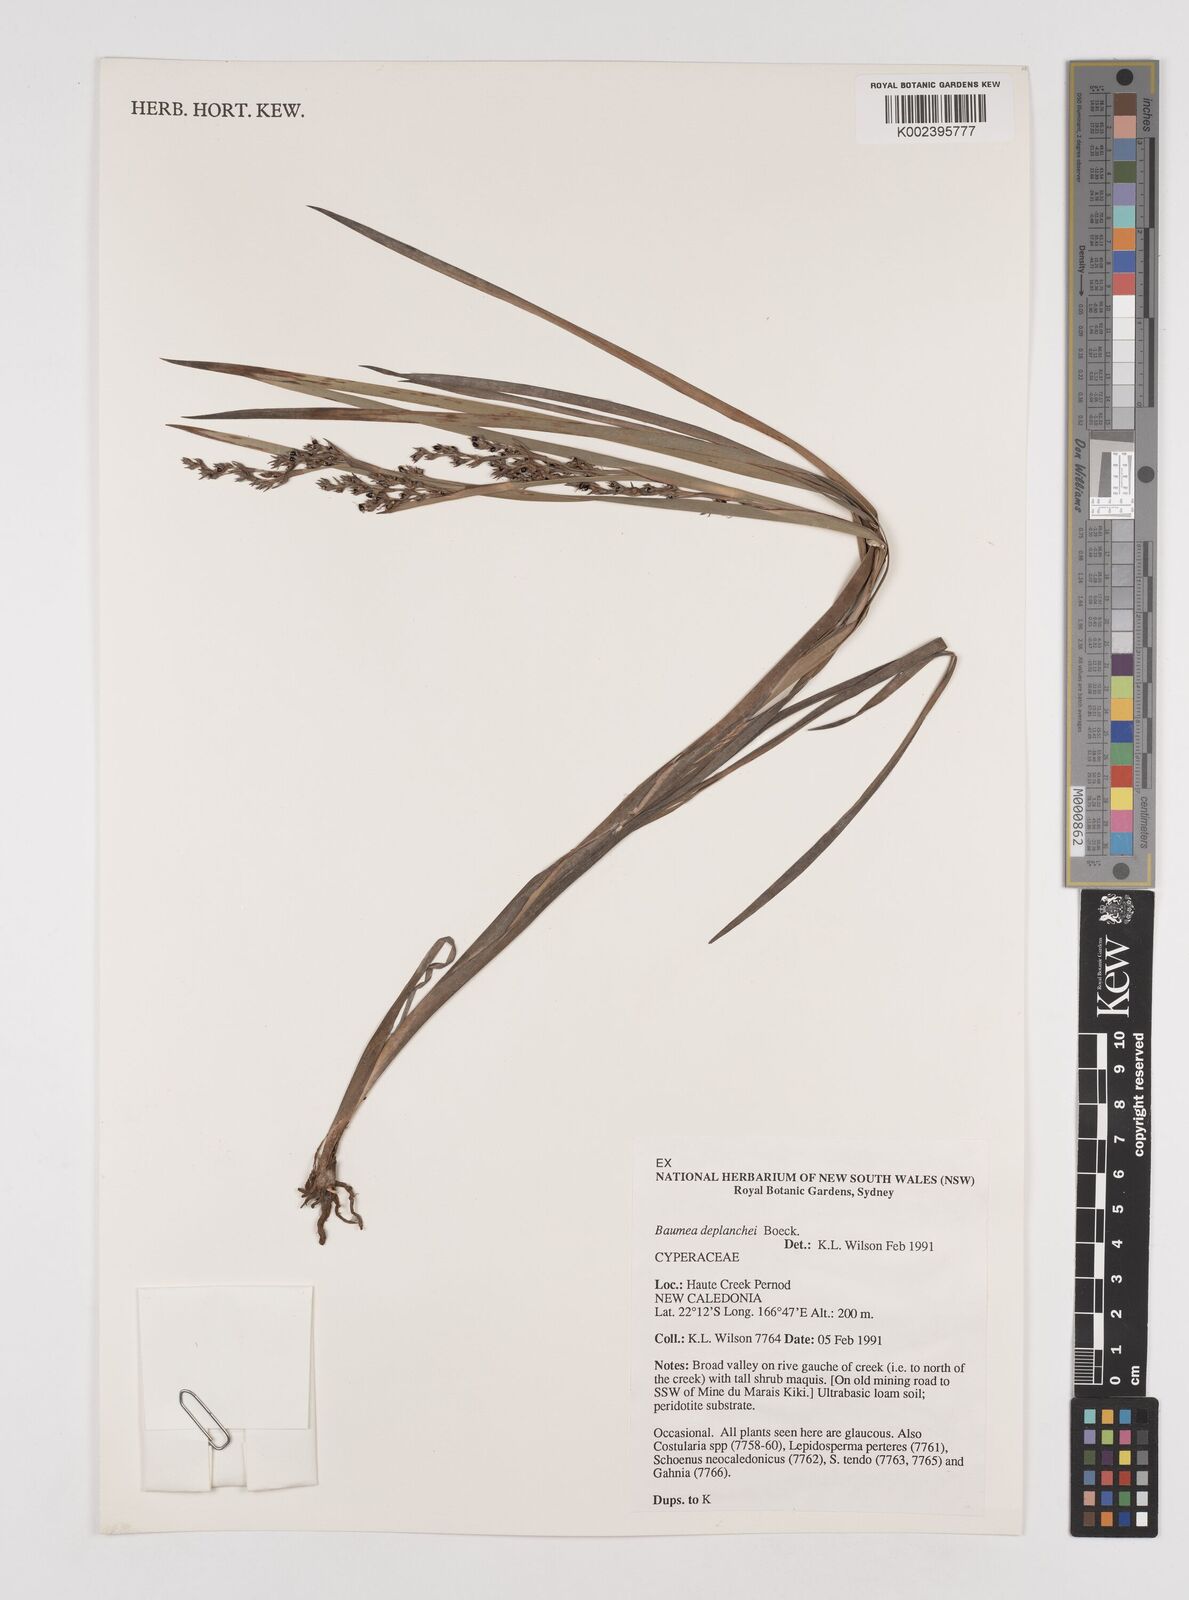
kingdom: Plantae
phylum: Tracheophyta
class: Liliopsida
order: Poales
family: Cyperaceae
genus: Machaerina
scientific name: Machaerina deplanchei
